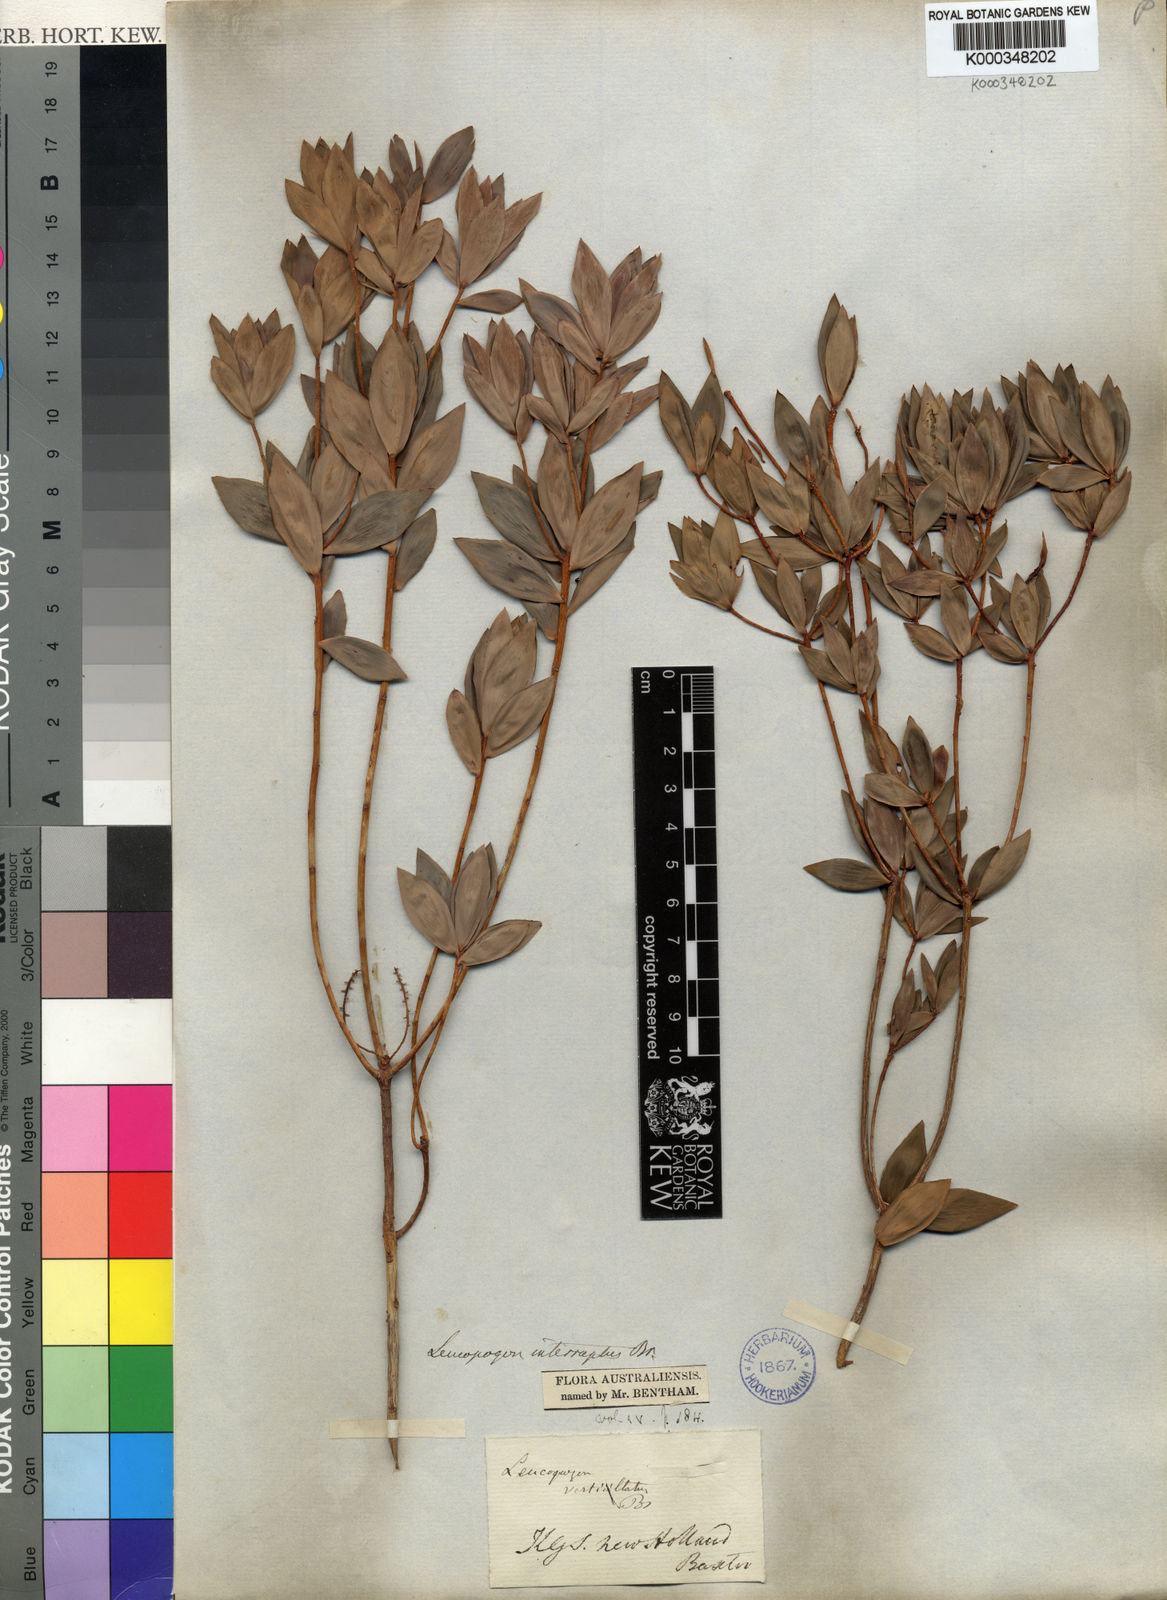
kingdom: Plantae
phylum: Tracheophyta
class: Magnoliopsida
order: Ericales
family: Ericaceae
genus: Leucopogon
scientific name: Leucopogon interruptus
